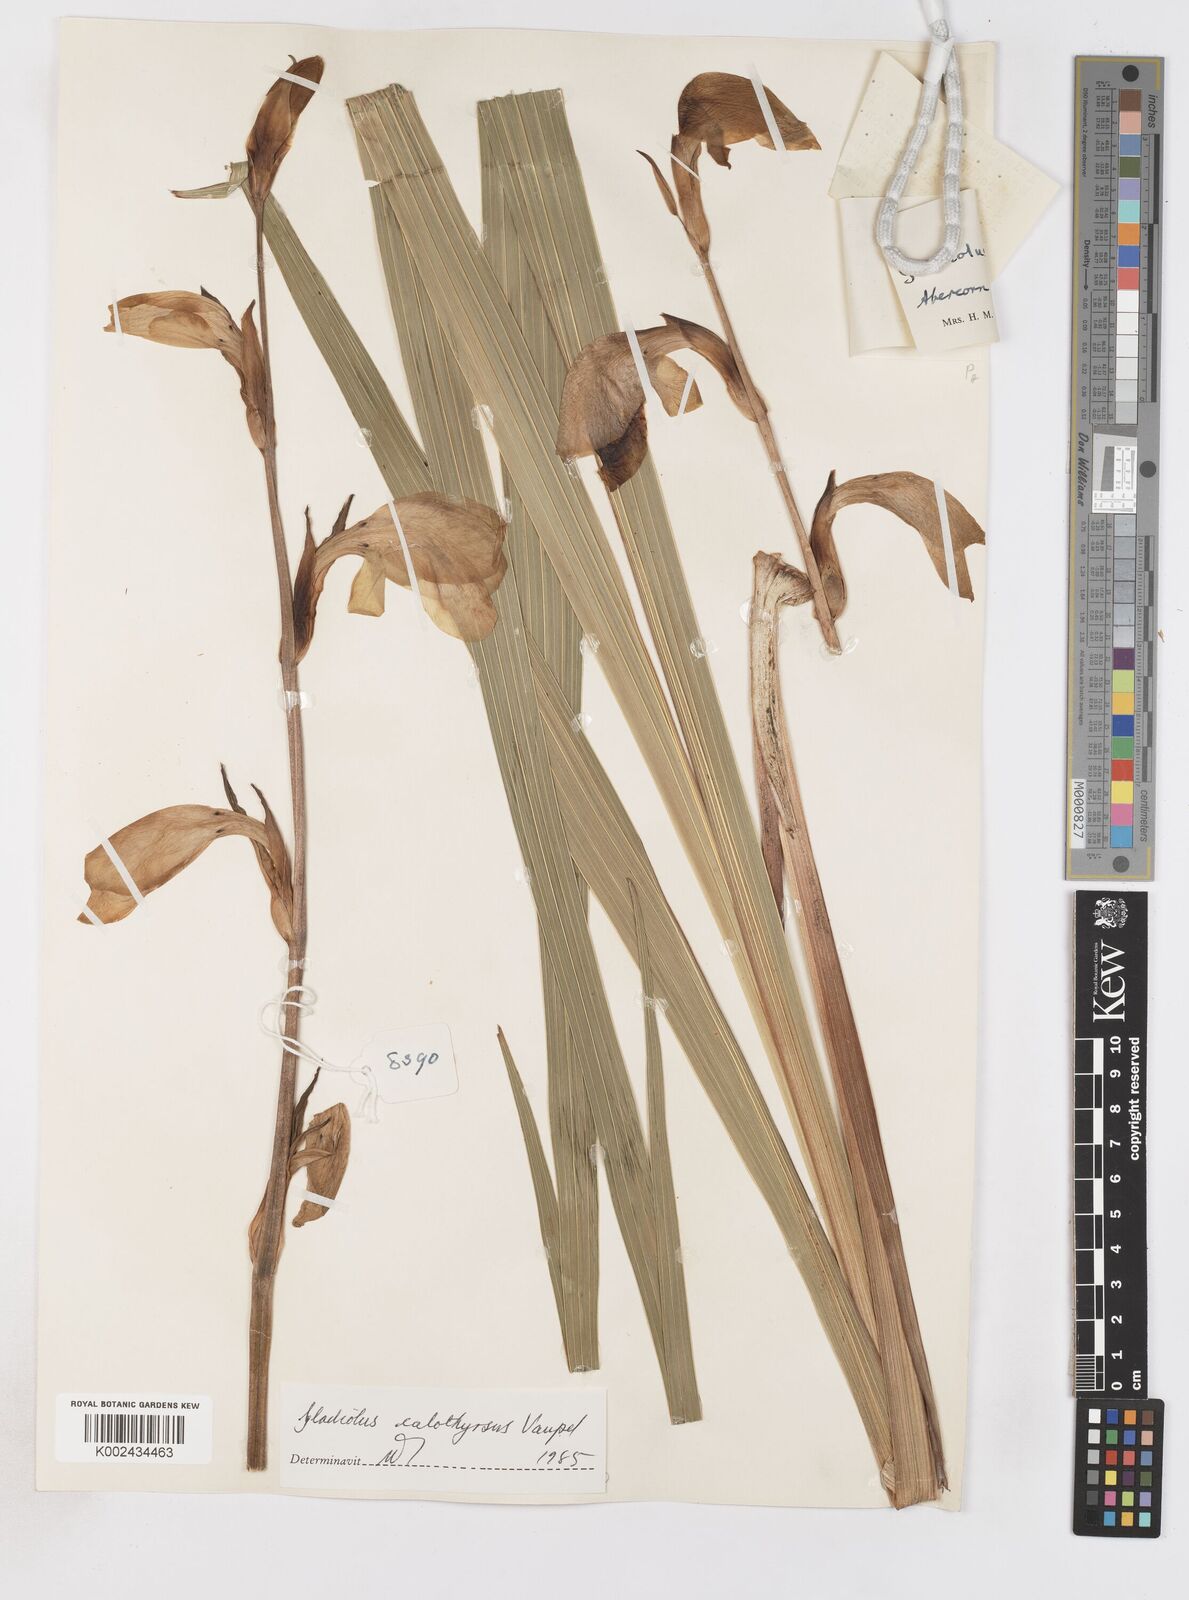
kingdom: Plantae
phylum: Tracheophyta
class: Liliopsida
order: Asparagales
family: Iridaceae
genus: Gladiolus
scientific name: Gladiolus dalenii
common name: Cornflag
